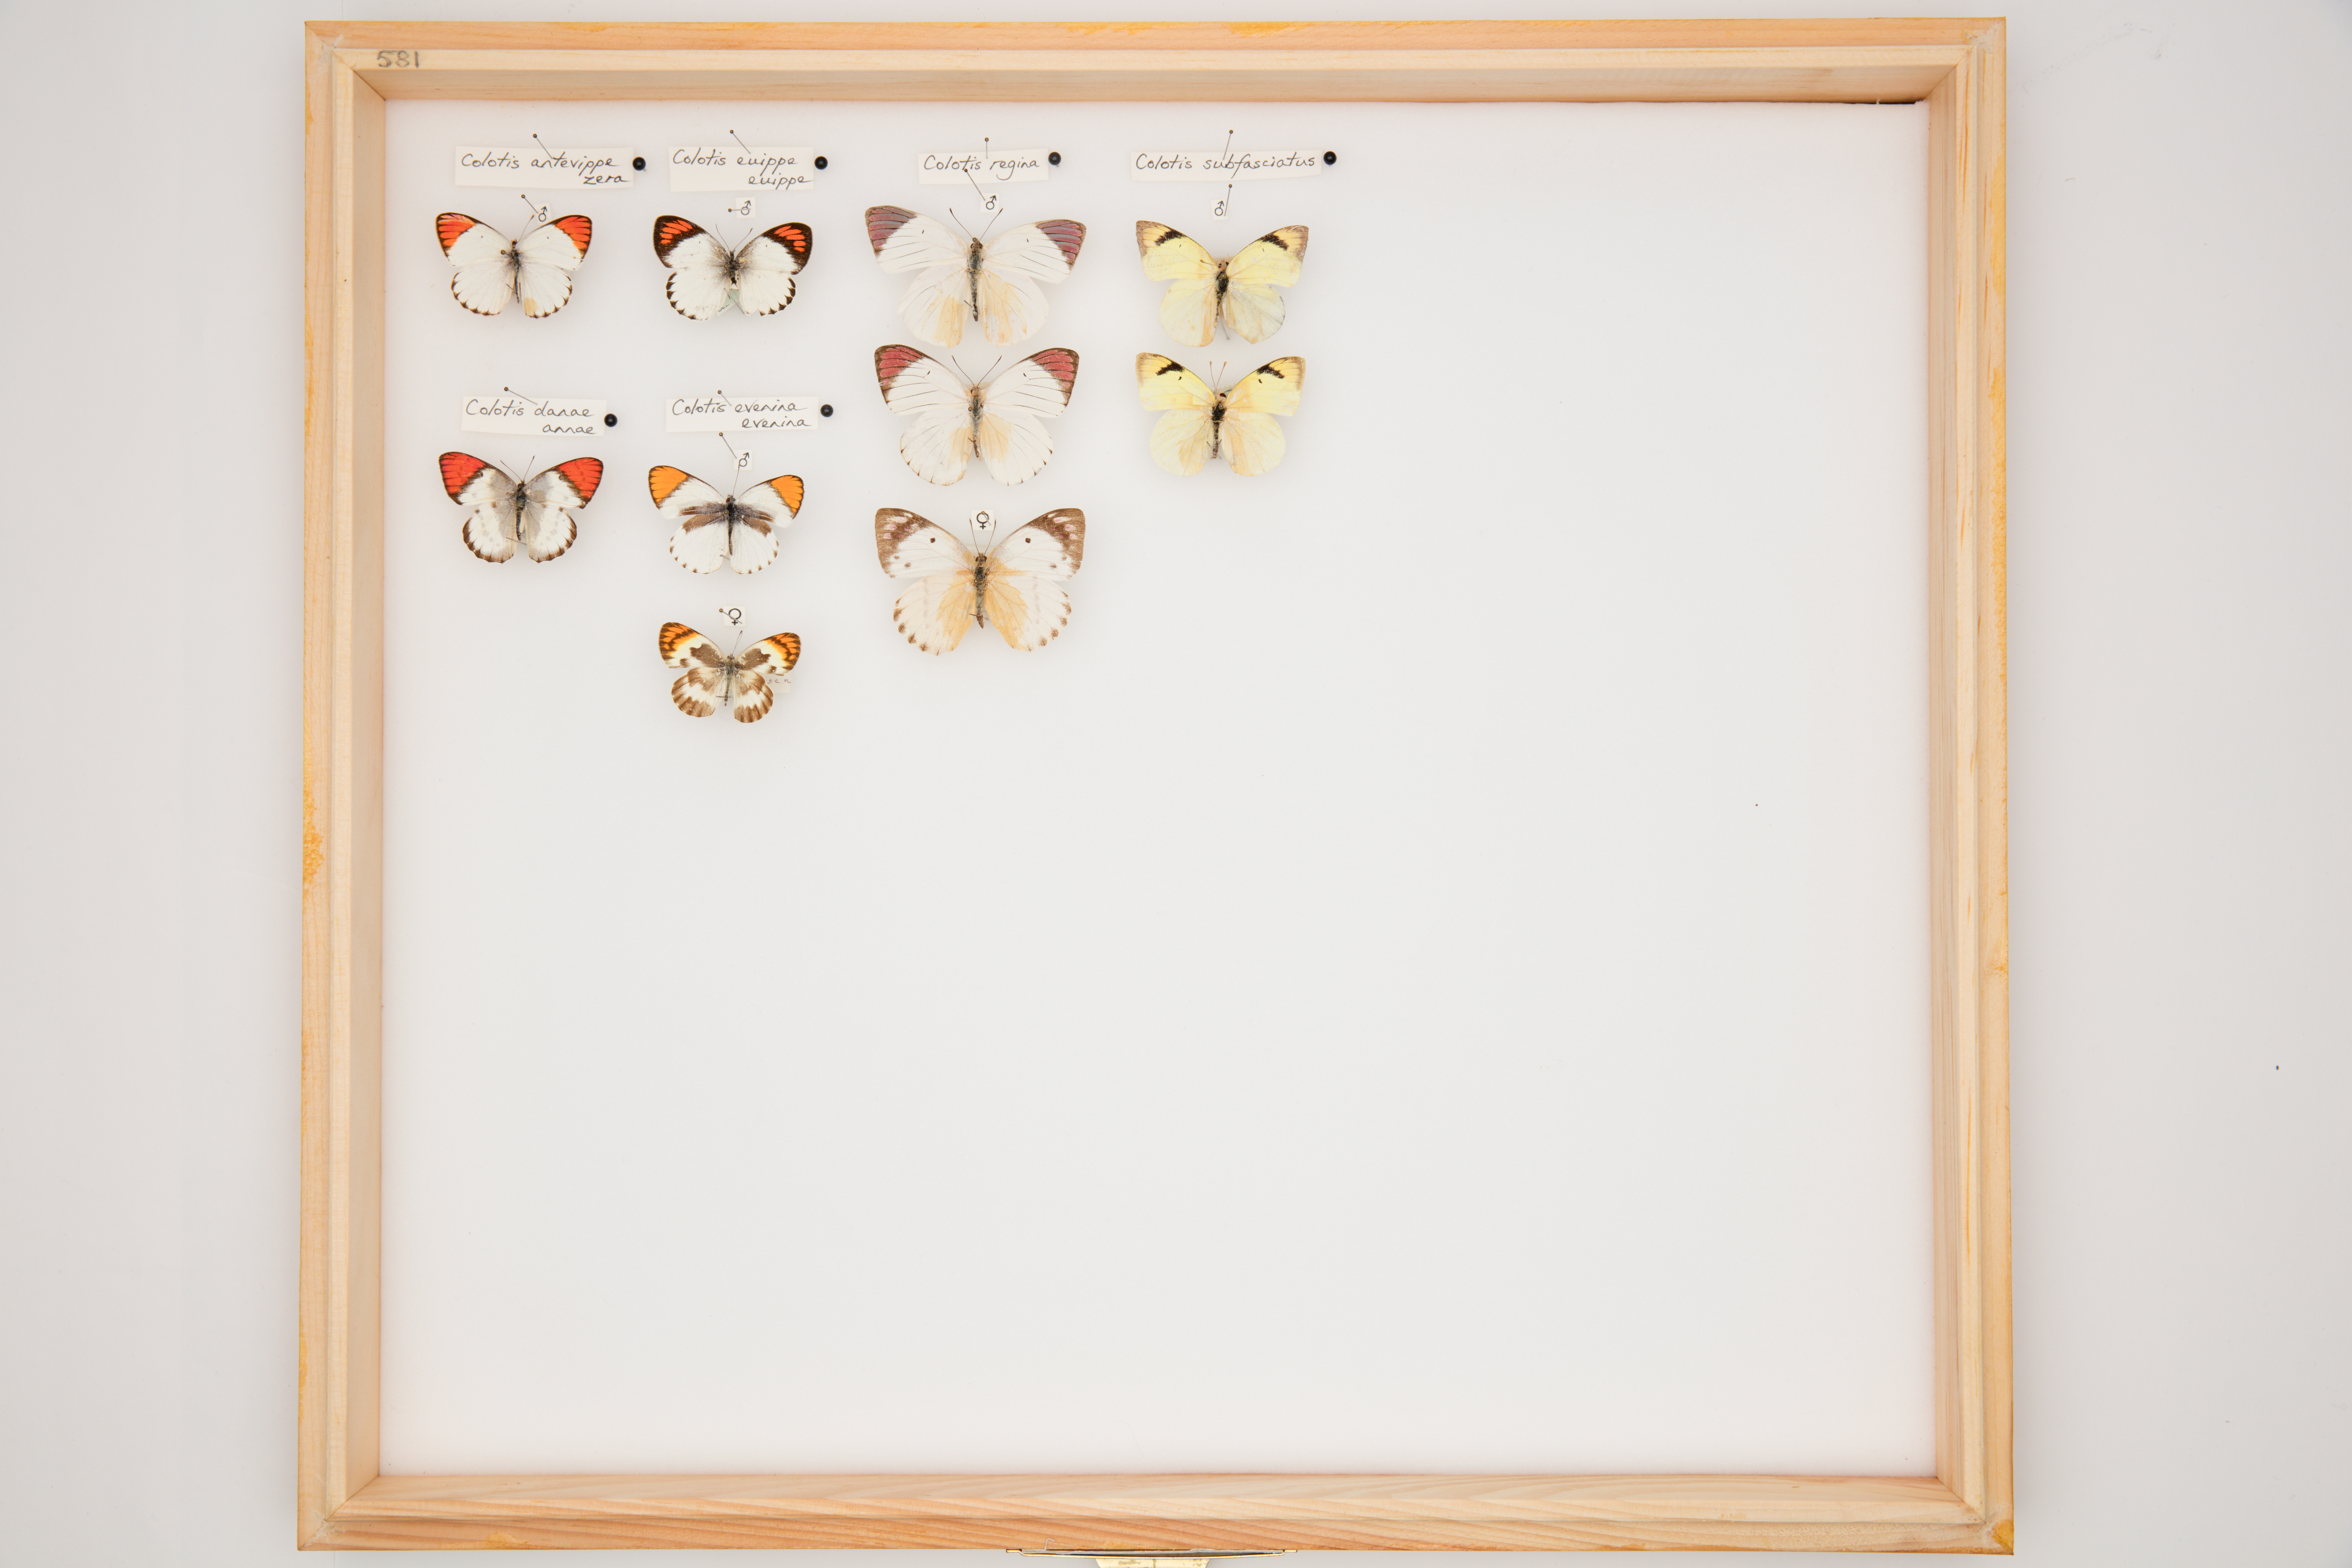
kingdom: Animalia
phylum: Arthropoda
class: Insecta
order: Lepidoptera
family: Pieridae
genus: Colotis
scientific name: Colotis euippe
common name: Round-winged orange tip
